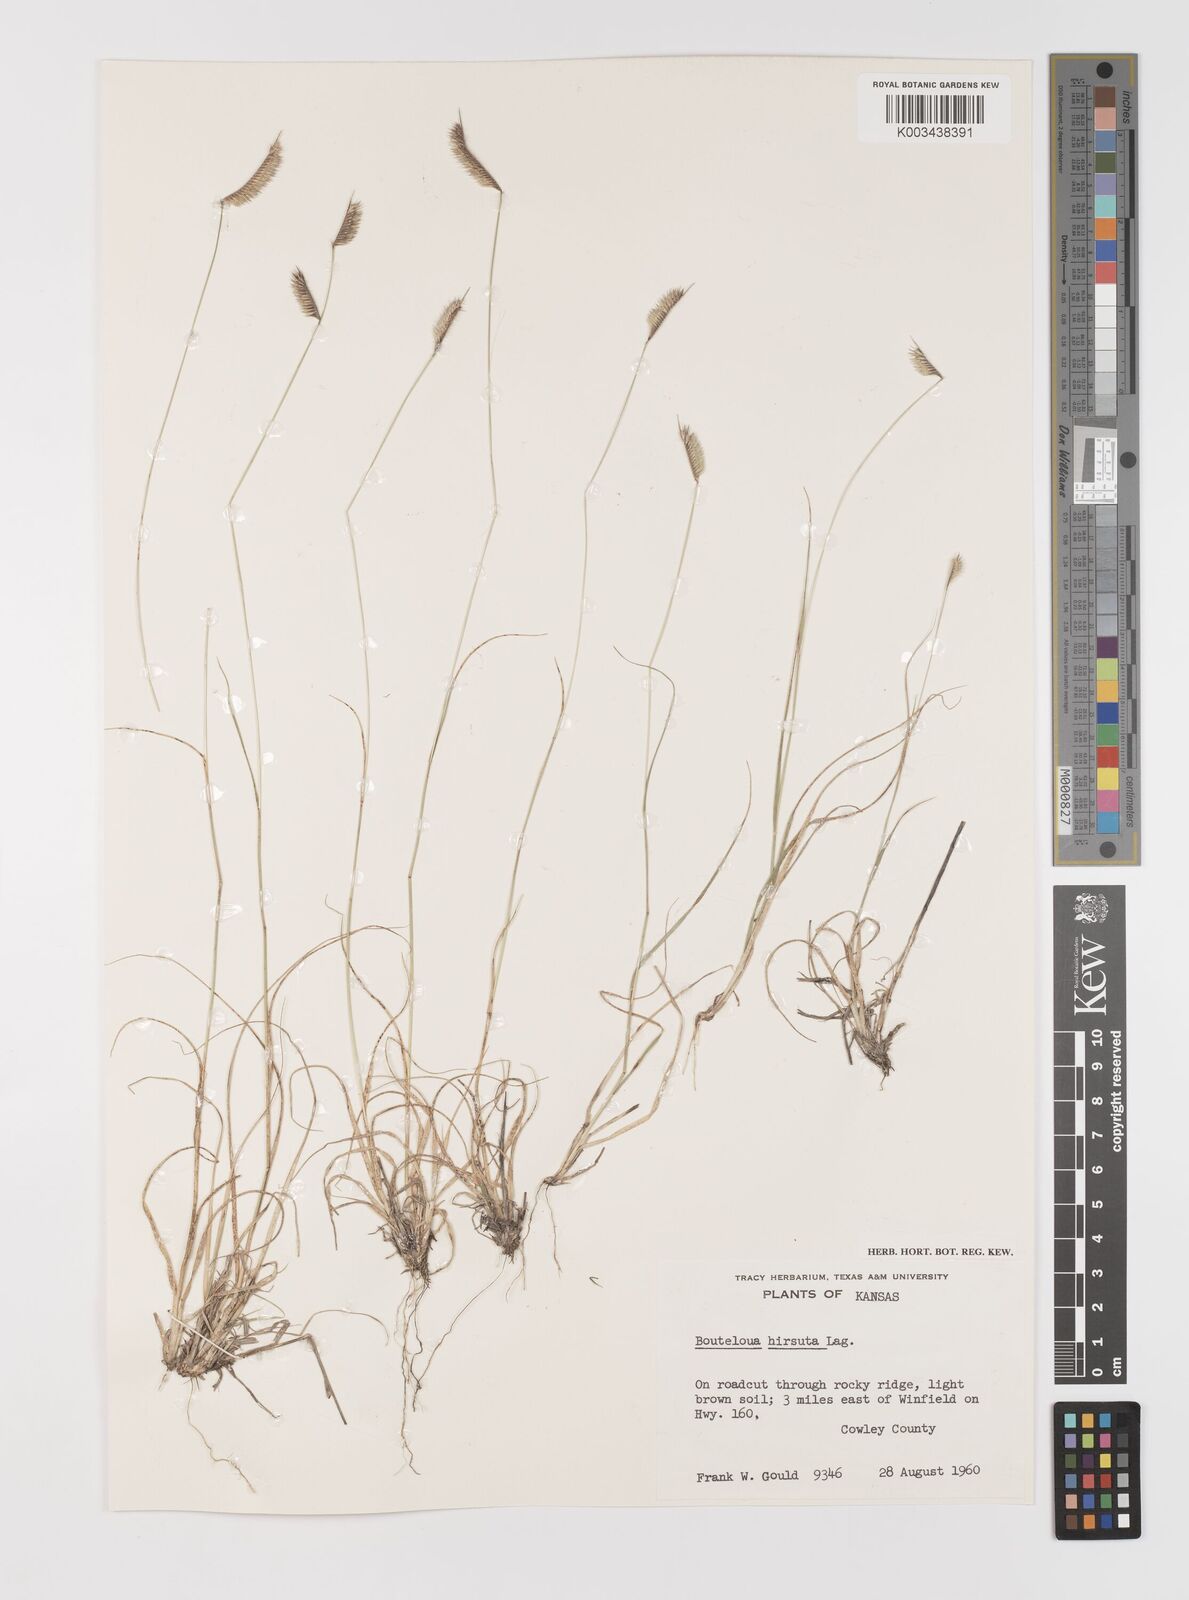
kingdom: Plantae
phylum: Tracheophyta
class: Liliopsida
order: Poales
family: Poaceae
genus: Bouteloua
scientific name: Bouteloua hirsuta
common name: Hairy grama
